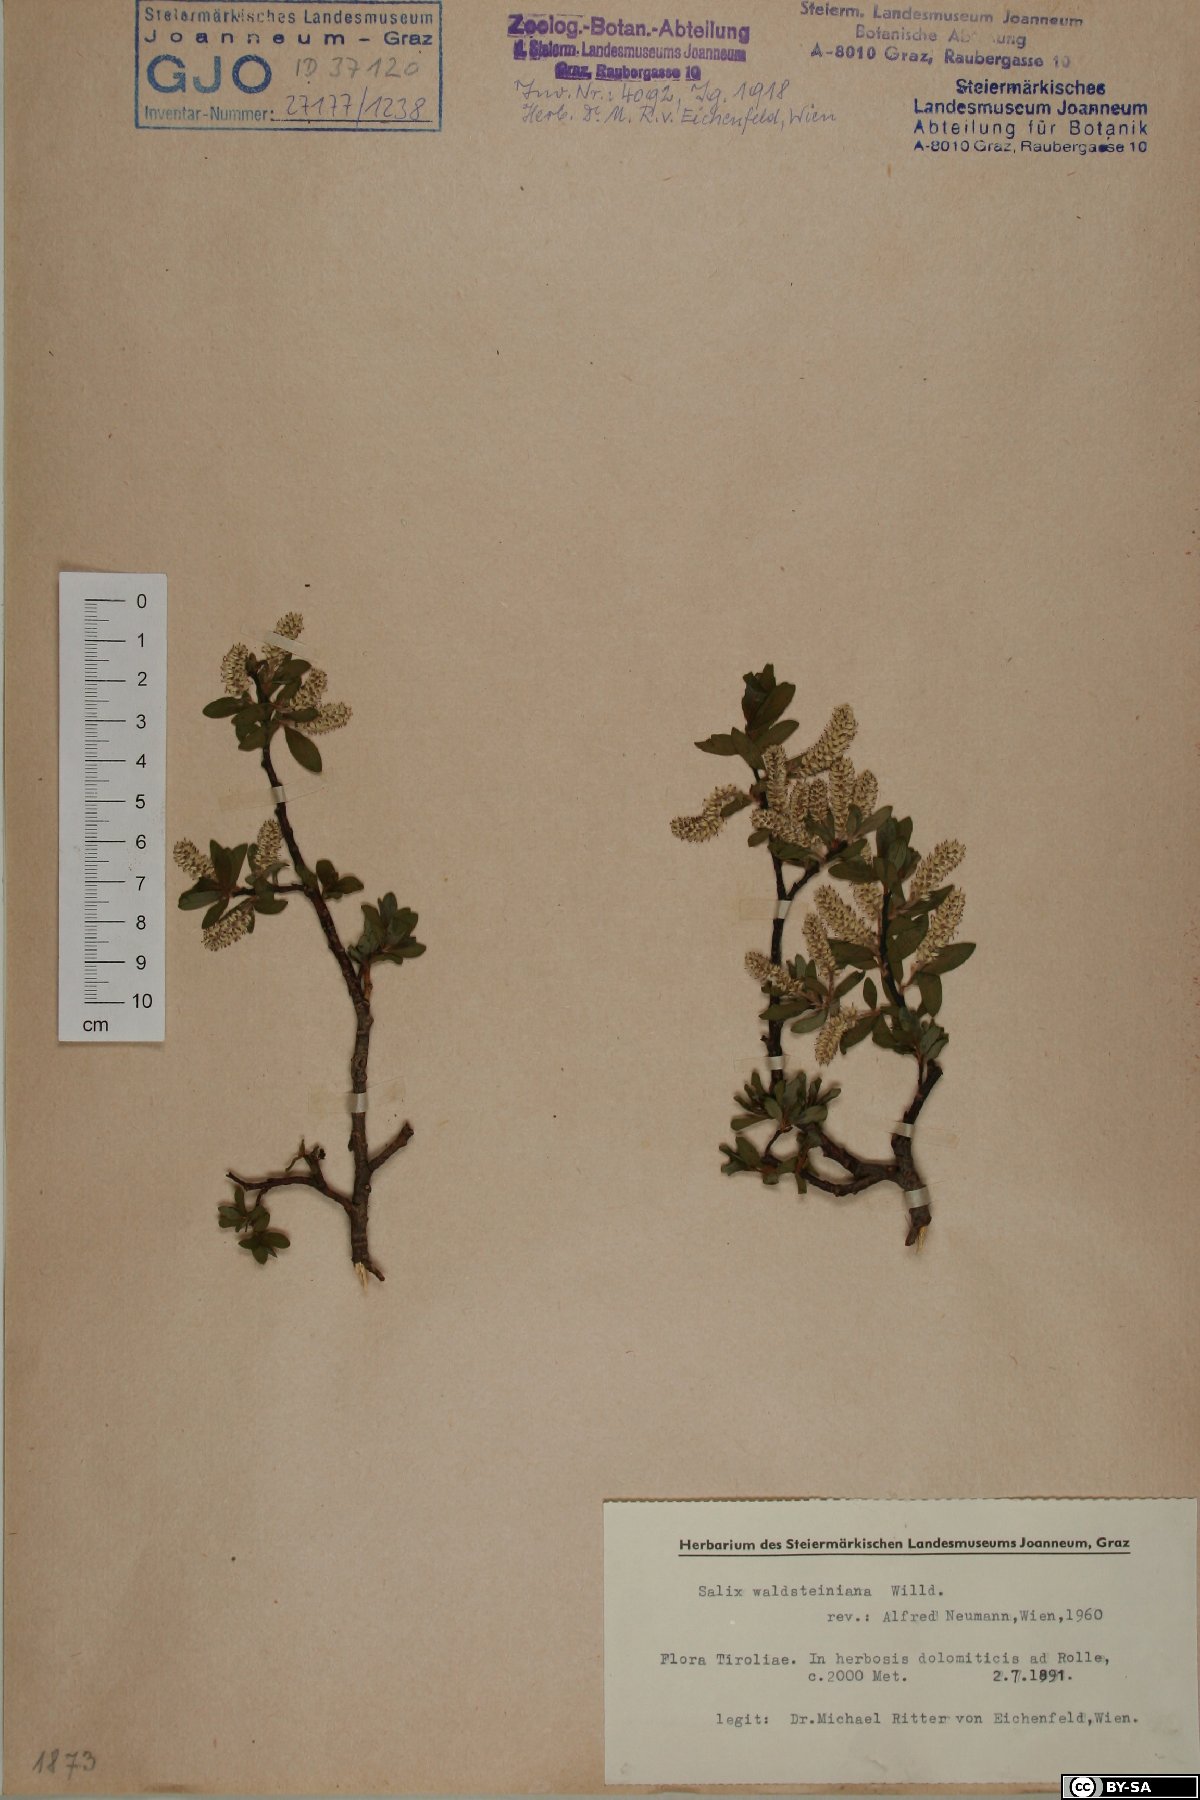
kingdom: Plantae
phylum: Tracheophyta
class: Magnoliopsida
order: Malpighiales
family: Salicaceae
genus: Salix
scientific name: Salix waldsteiniana
